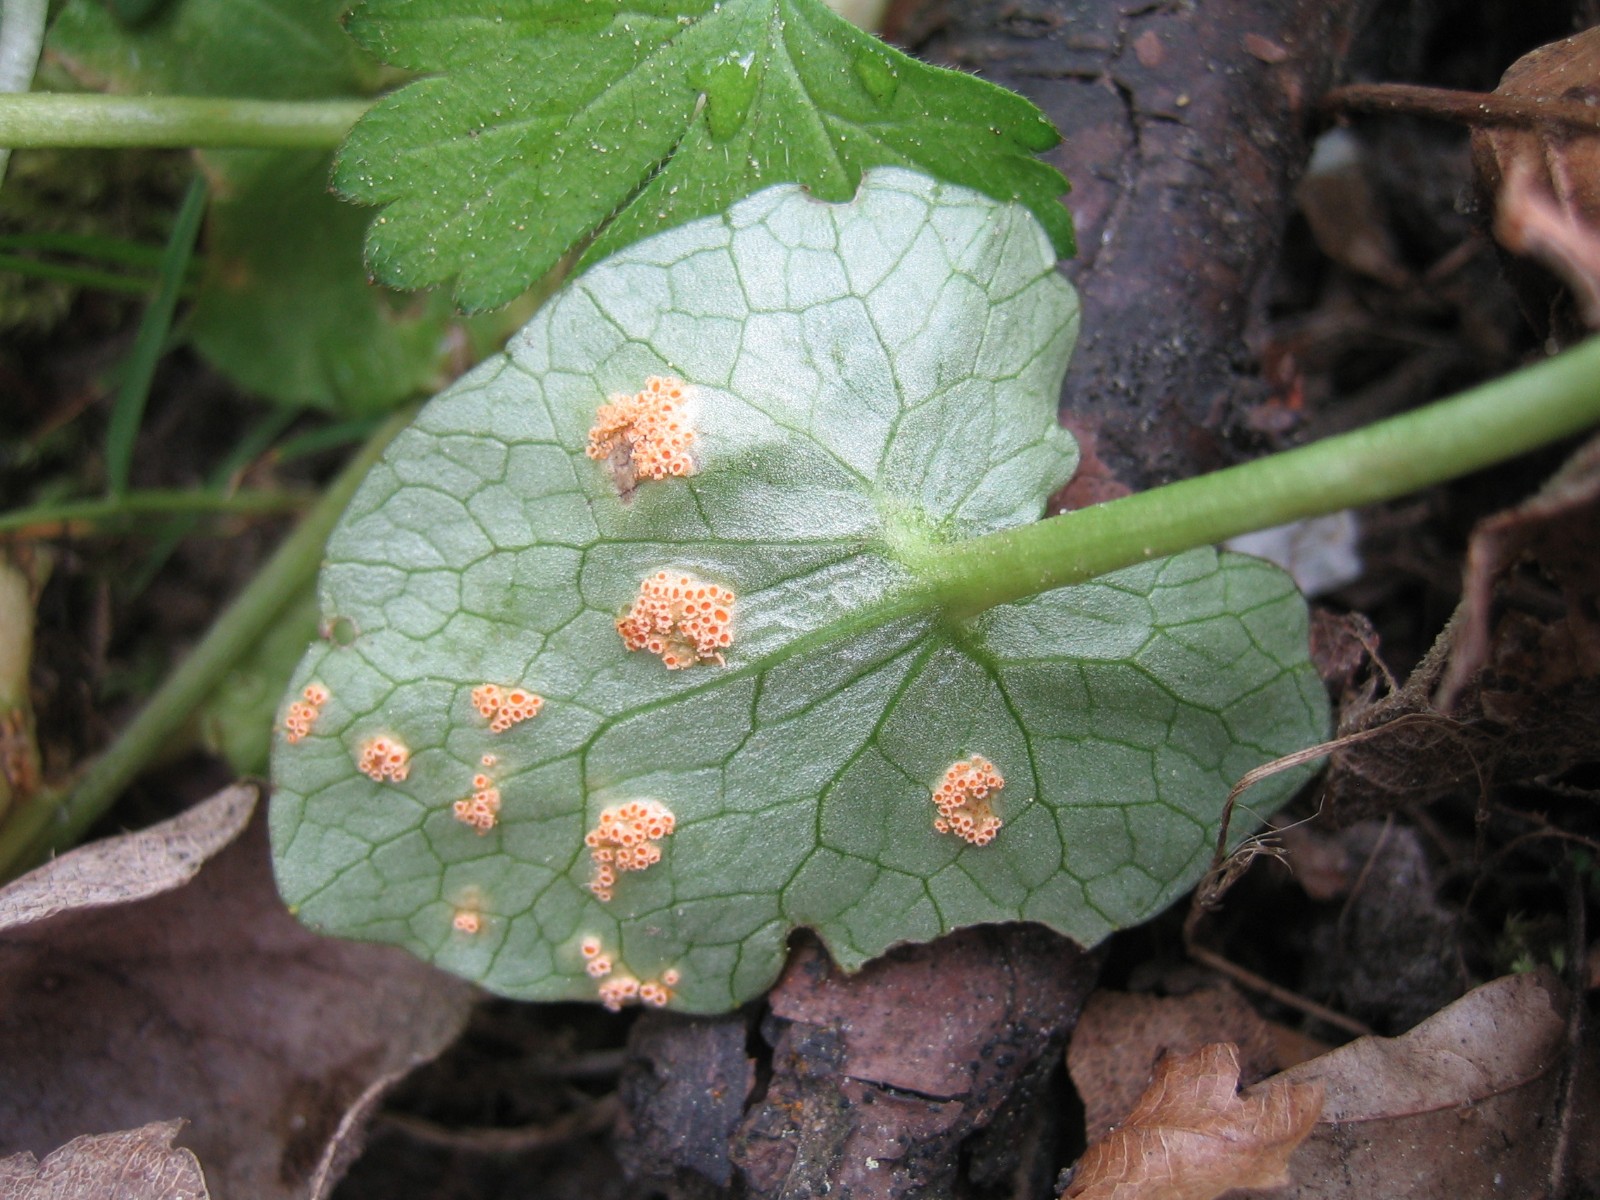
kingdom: Fungi
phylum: Basidiomycota
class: Pucciniomycetes
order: Pucciniales
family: Pucciniaceae
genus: Uromyces
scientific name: Uromyces dactylidis
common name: ranunkel-encellerust
